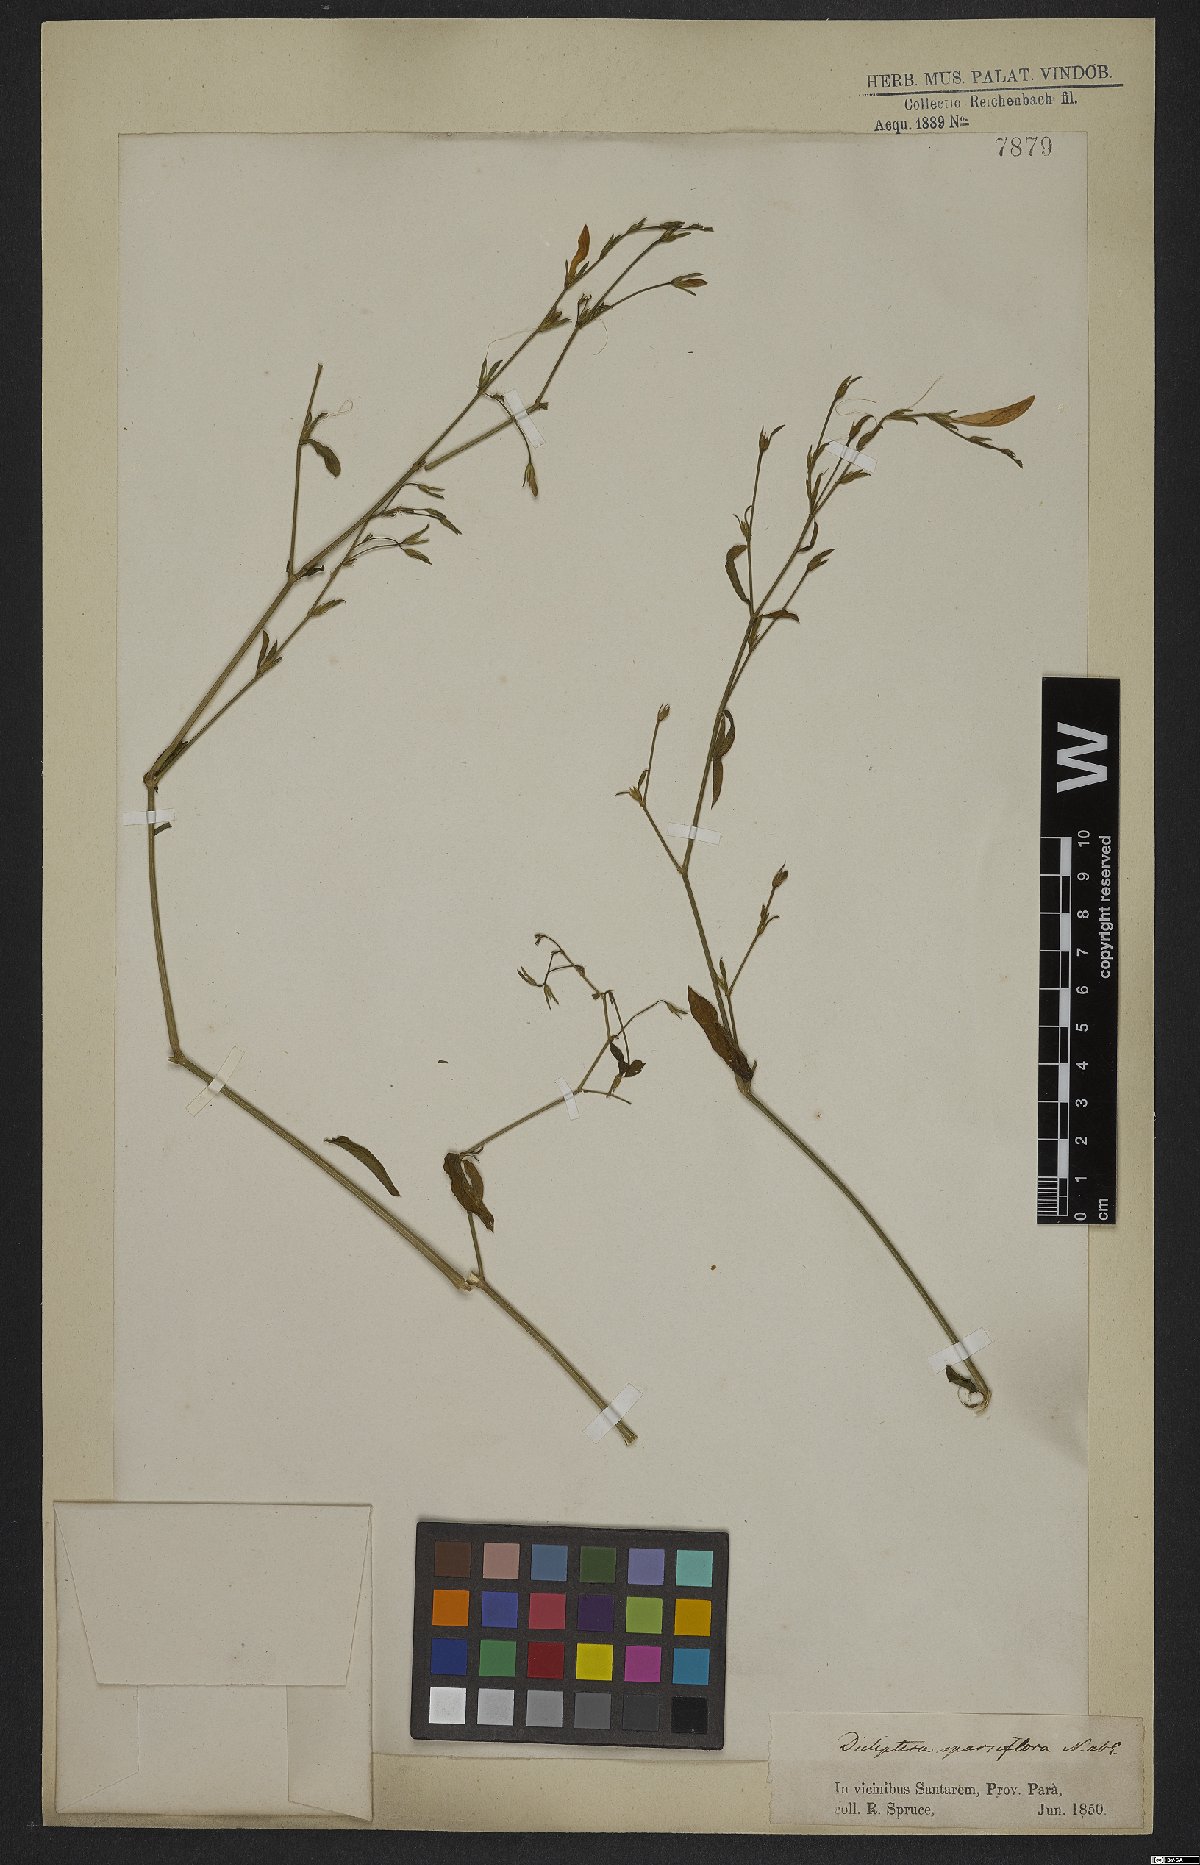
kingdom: Plantae
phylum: Tracheophyta
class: Magnoliopsida
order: Lamiales
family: Acanthaceae
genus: Dicliptera
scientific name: Dicliptera sparsiflora
